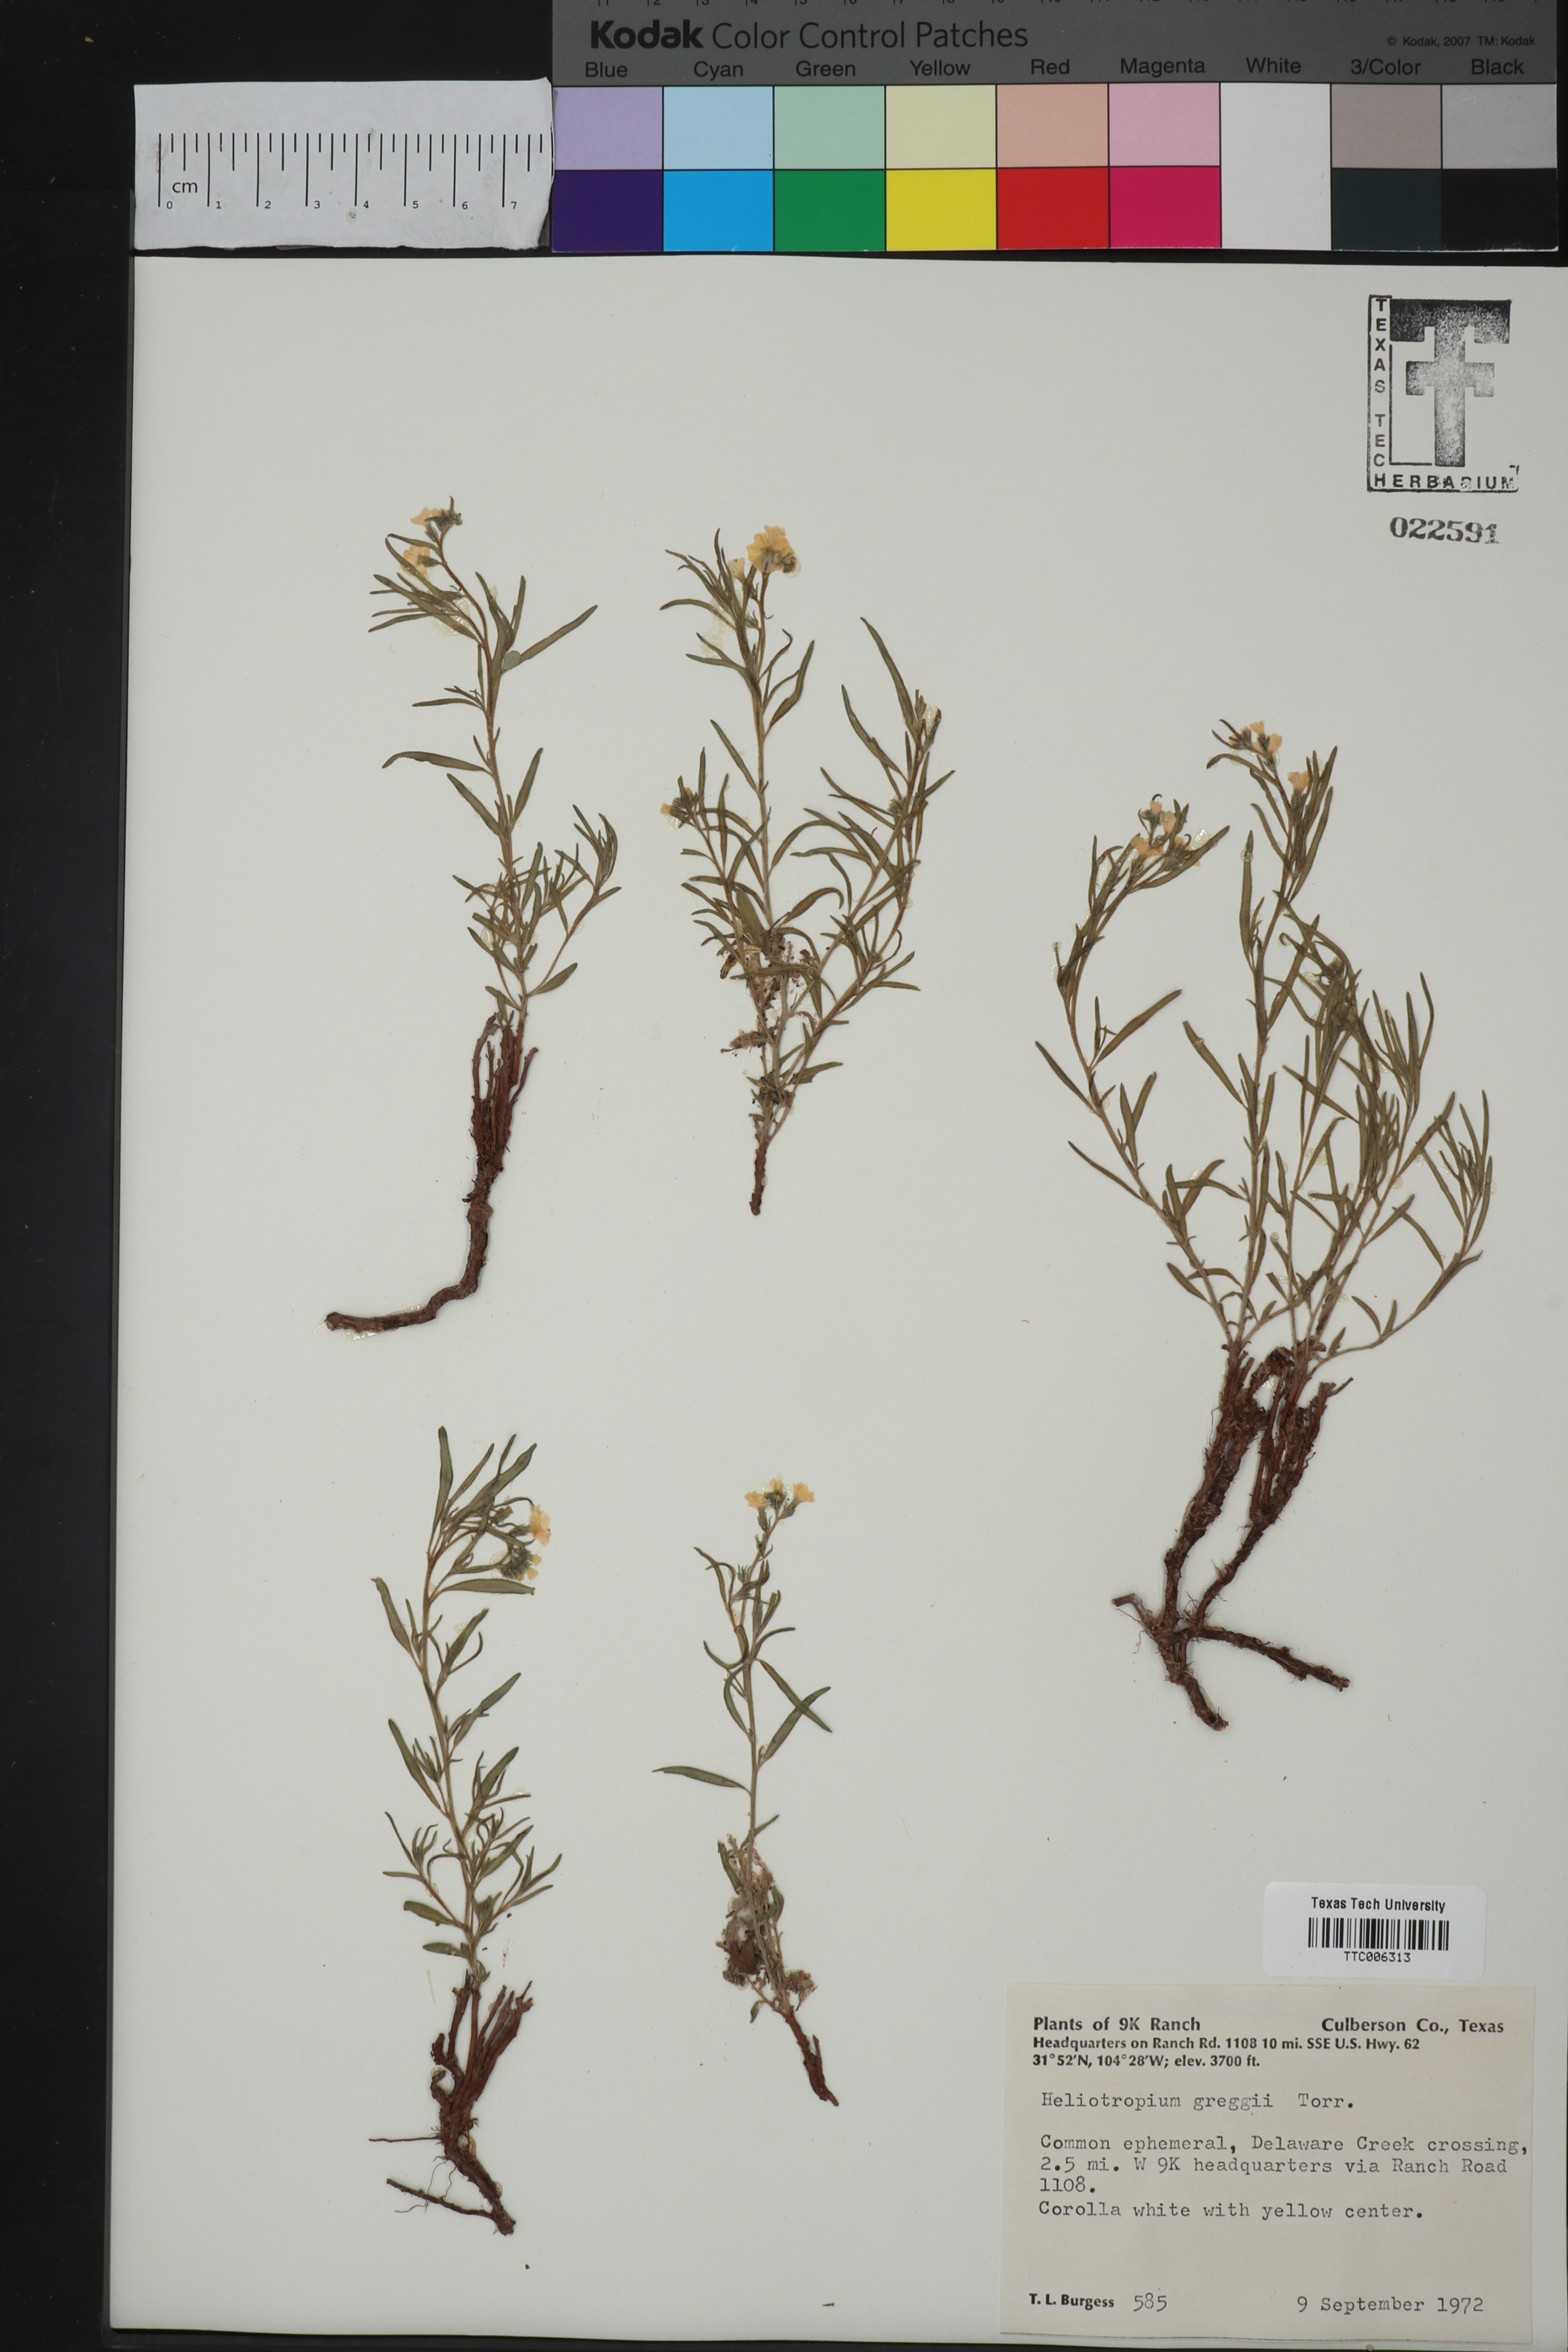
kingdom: Plantae
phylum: Tracheophyta
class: Magnoliopsida
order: Boraginales
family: Heliotropiaceae
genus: Euploca
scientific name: Euploca greggii
